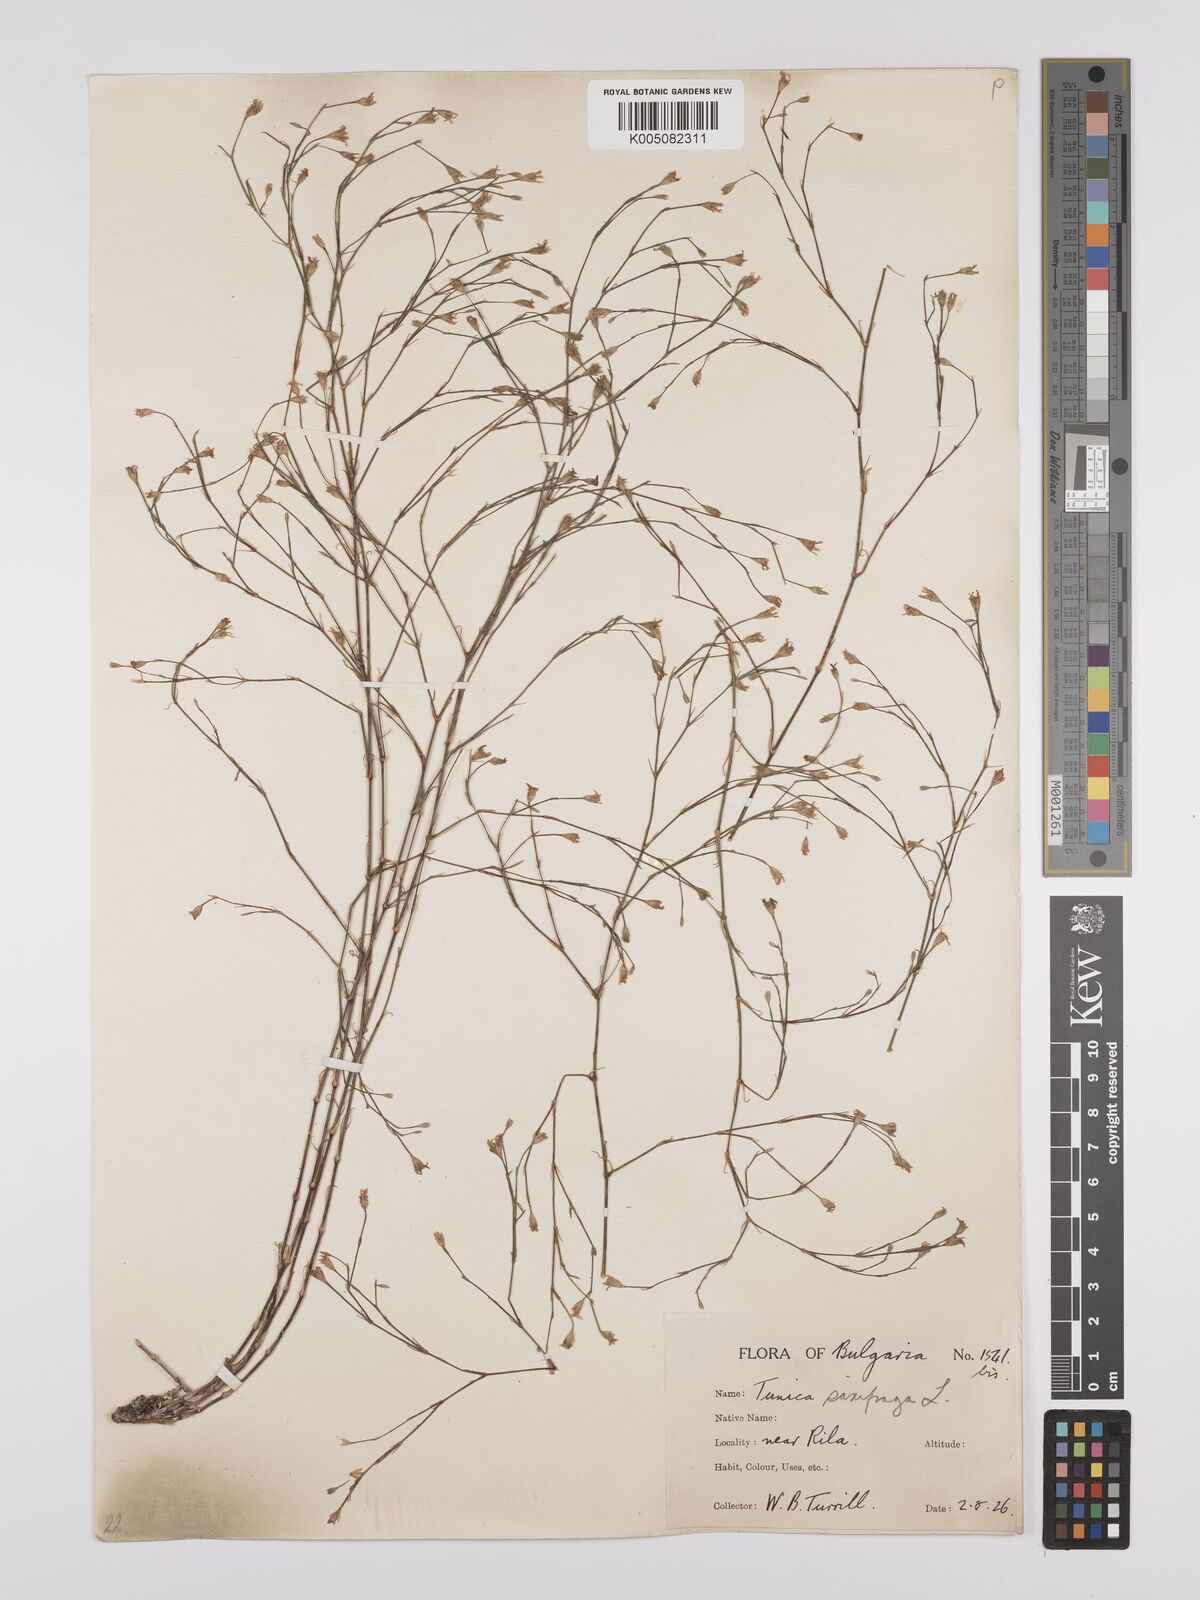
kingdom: Plantae
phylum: Tracheophyta
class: Magnoliopsida
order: Caryophyllales
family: Caryophyllaceae
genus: Petrorhagia
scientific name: Petrorhagia saxifraga
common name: Tunicflower
